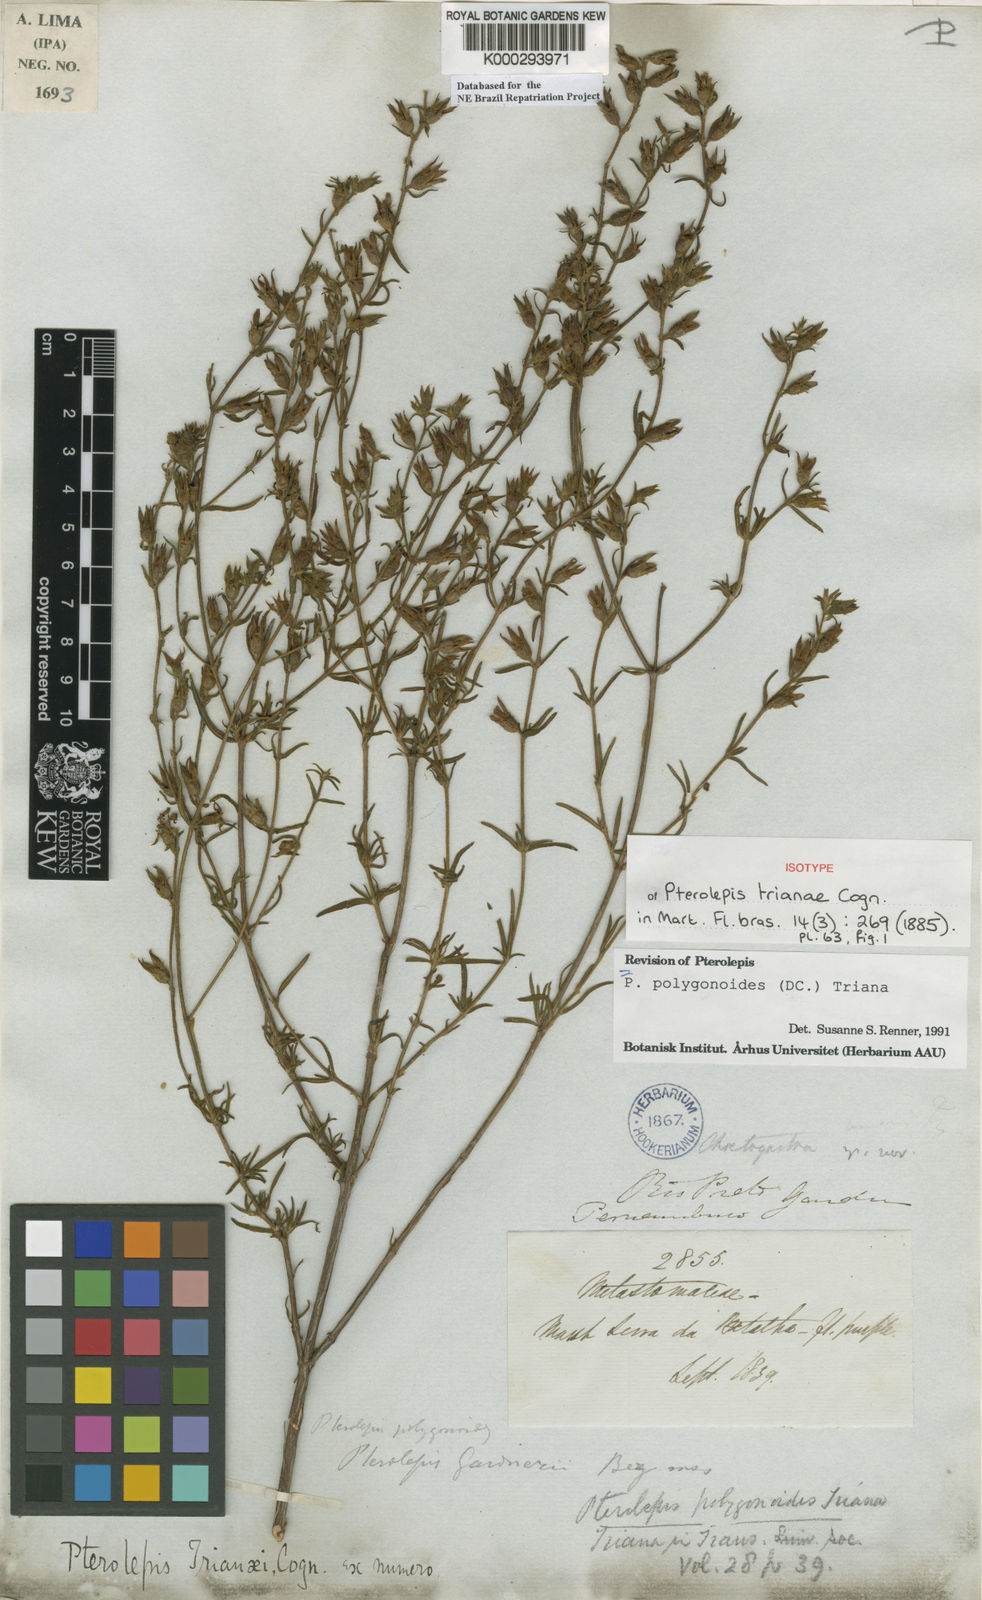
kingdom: Plantae
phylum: Tracheophyta
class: Magnoliopsida
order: Myrtales
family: Melastomataceae
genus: Pterolepis
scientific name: Pterolepis polygonoides
